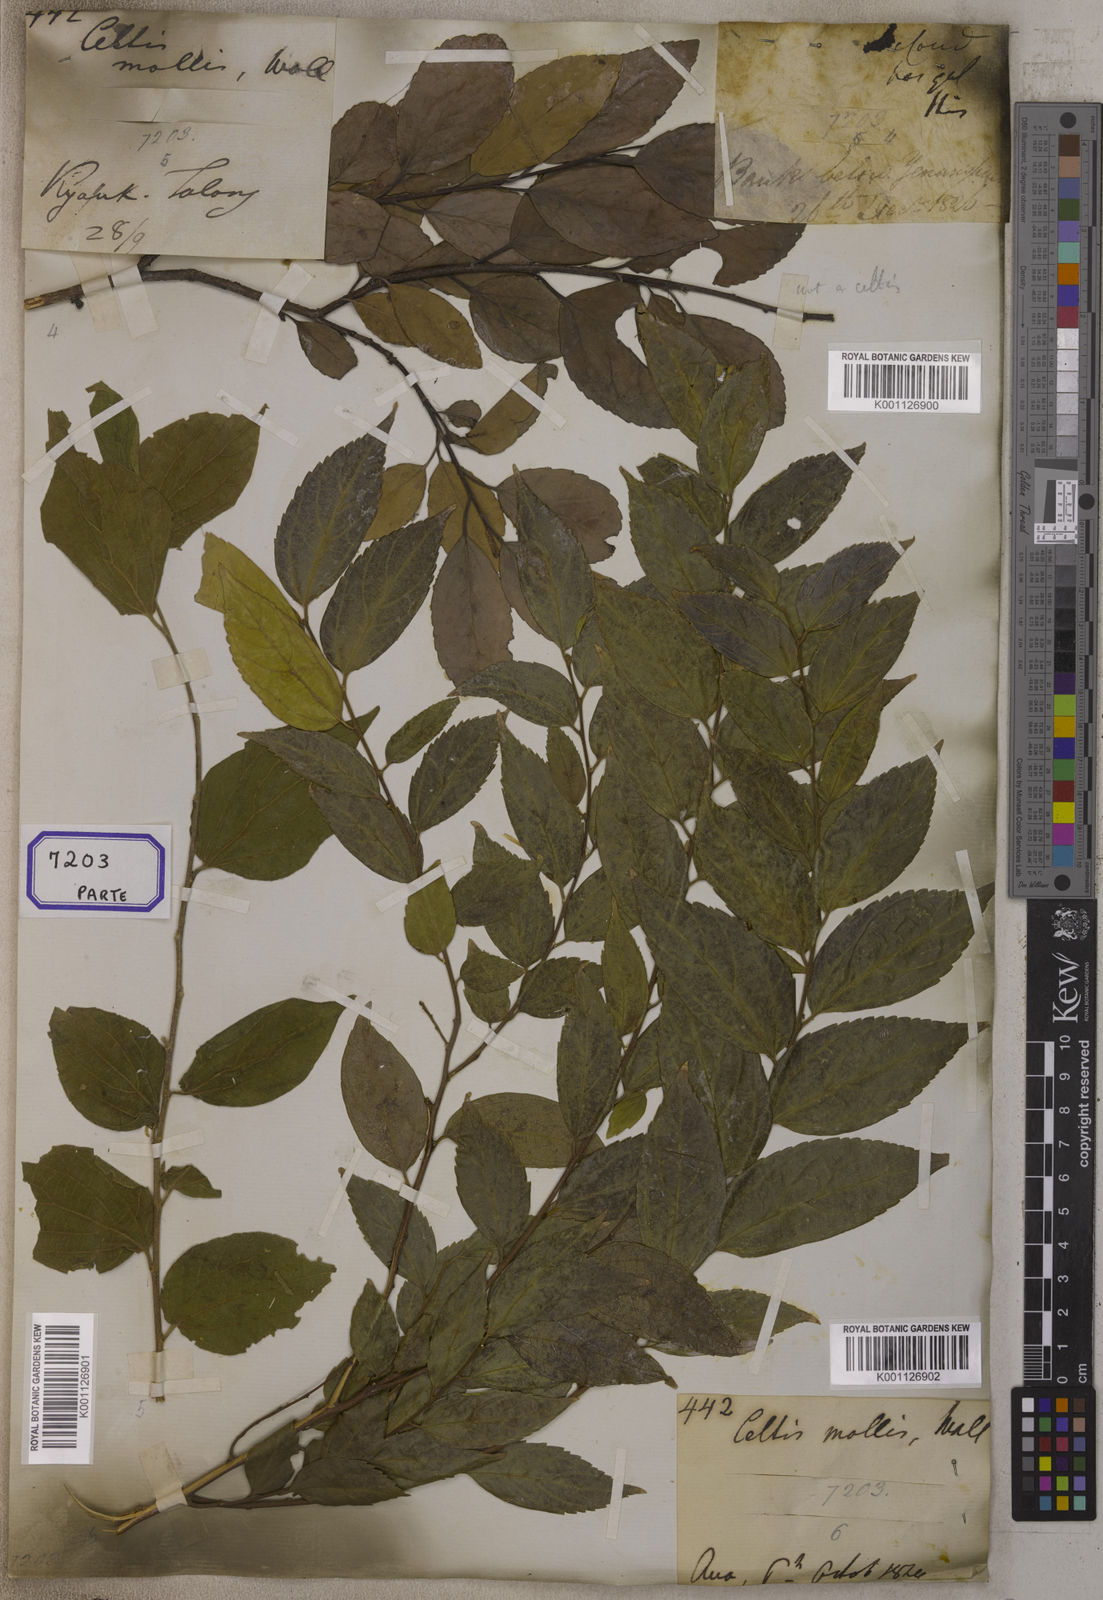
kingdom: Plantae
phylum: Tracheophyta
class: Magnoliopsida
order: Cardiopteridales
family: Stemonuraceae
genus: Gomphandra
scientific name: Gomphandra
